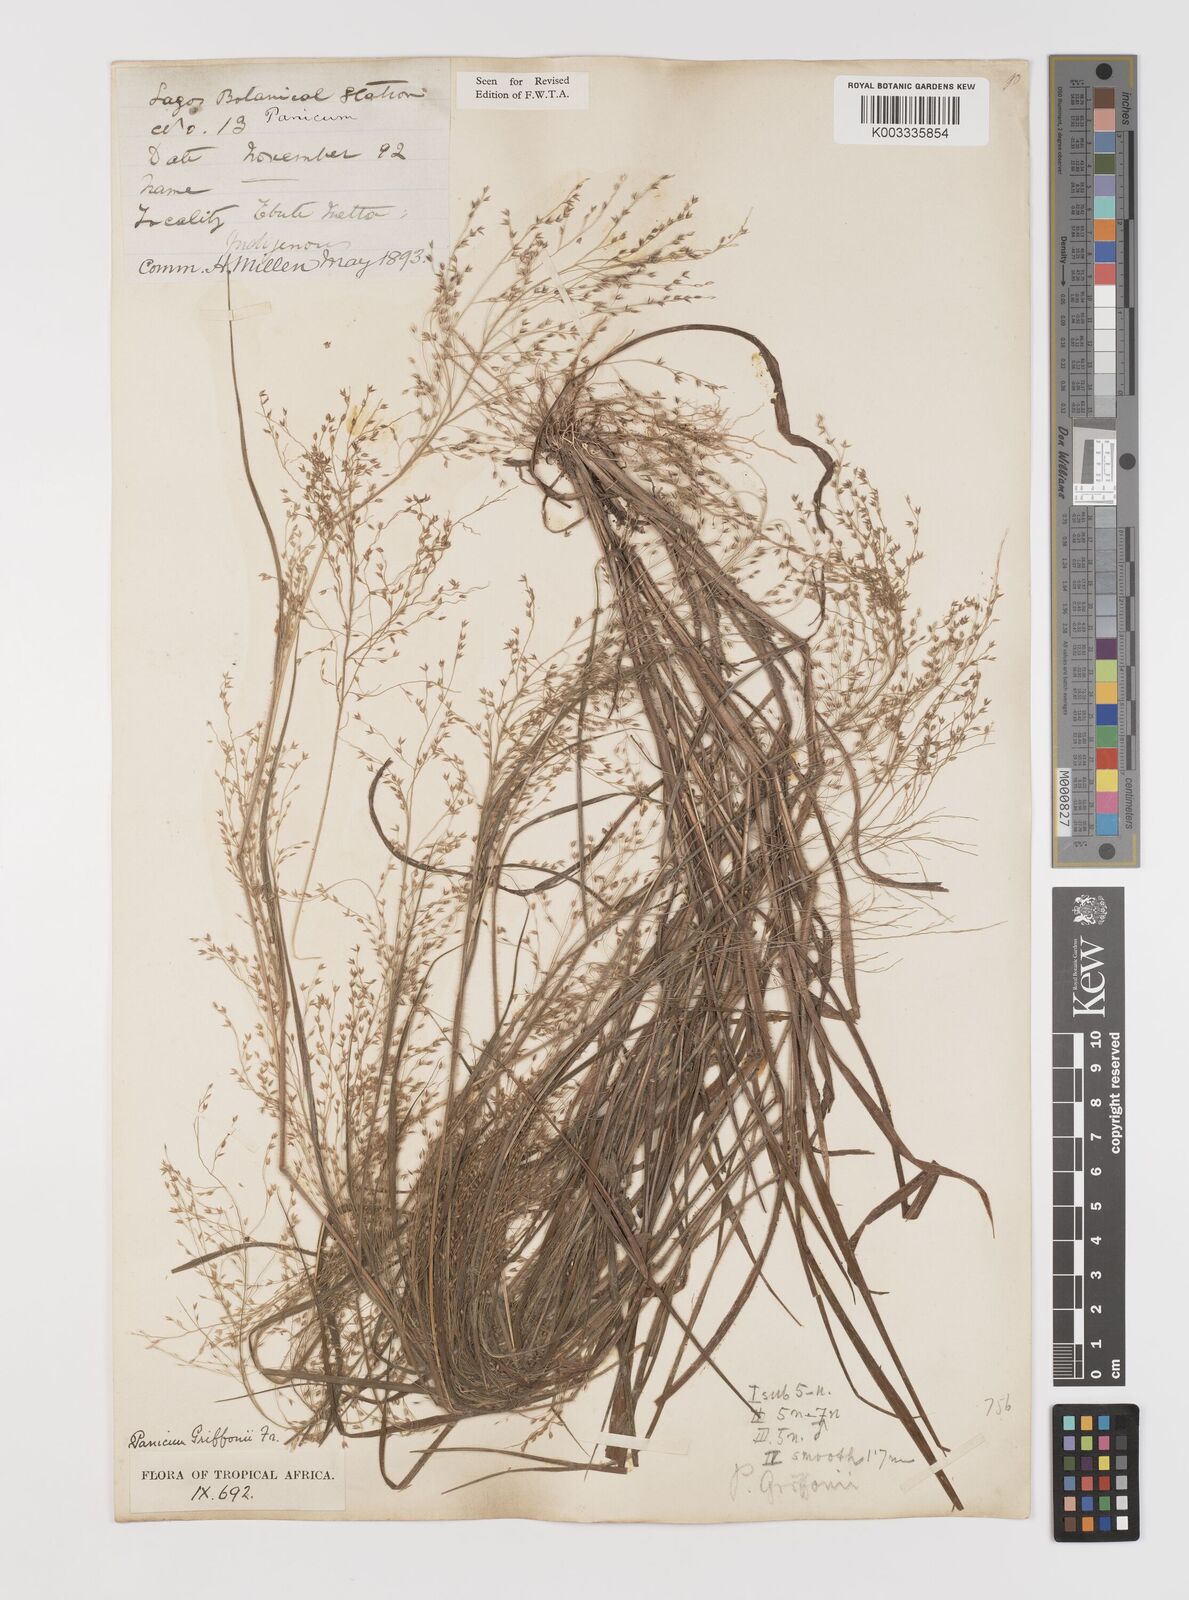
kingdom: Plantae
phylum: Tracheophyta
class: Liliopsida
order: Poales
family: Poaceae
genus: Panicum
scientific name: Panicum griffonii
